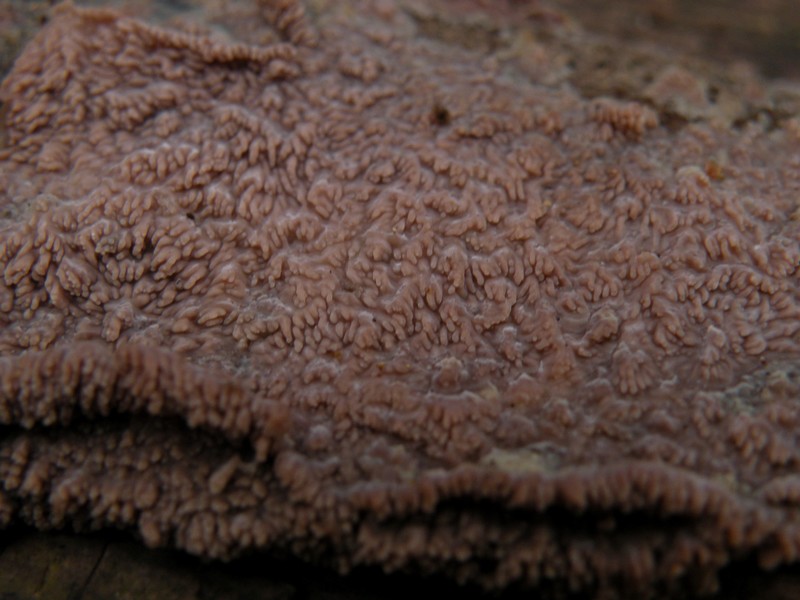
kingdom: Fungi
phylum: Basidiomycota
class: Agaricomycetes
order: Polyporales
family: Meruliaceae
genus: Phlebia
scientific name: Phlebia radiata
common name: stråle-åresvamp
